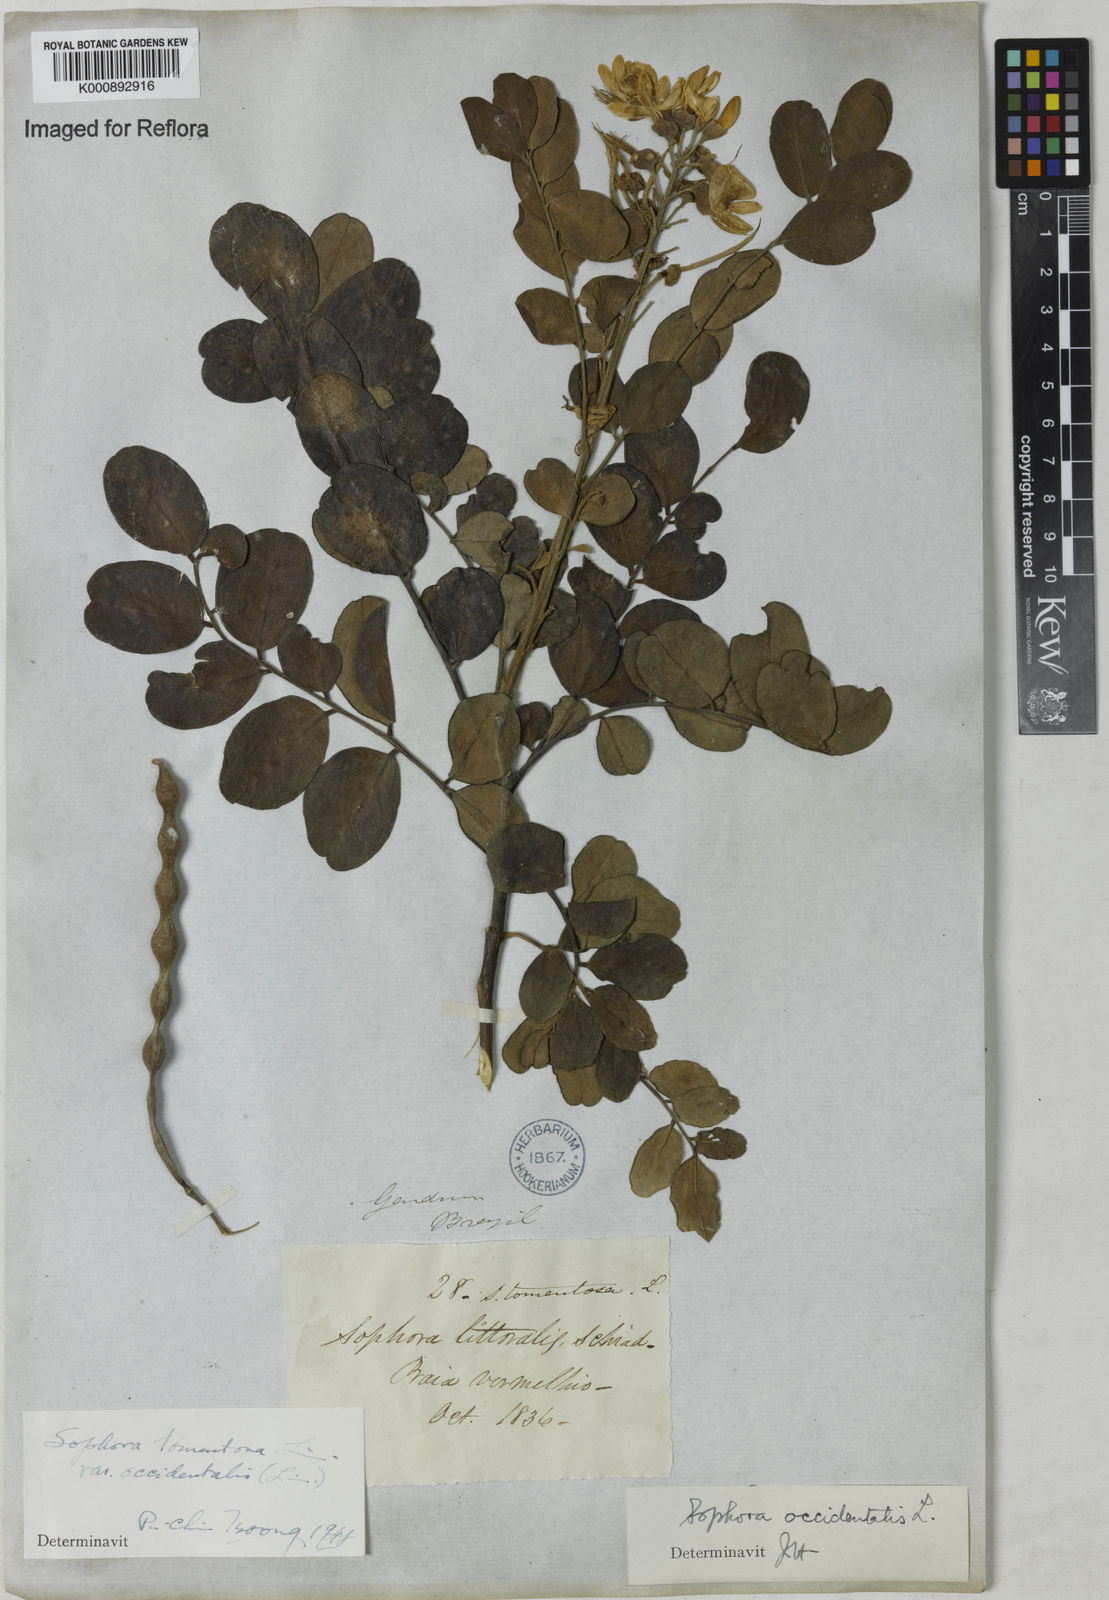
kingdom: Plantae
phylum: Tracheophyta
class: Magnoliopsida
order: Fabales
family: Fabaceae
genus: Sophora
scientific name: Sophora
